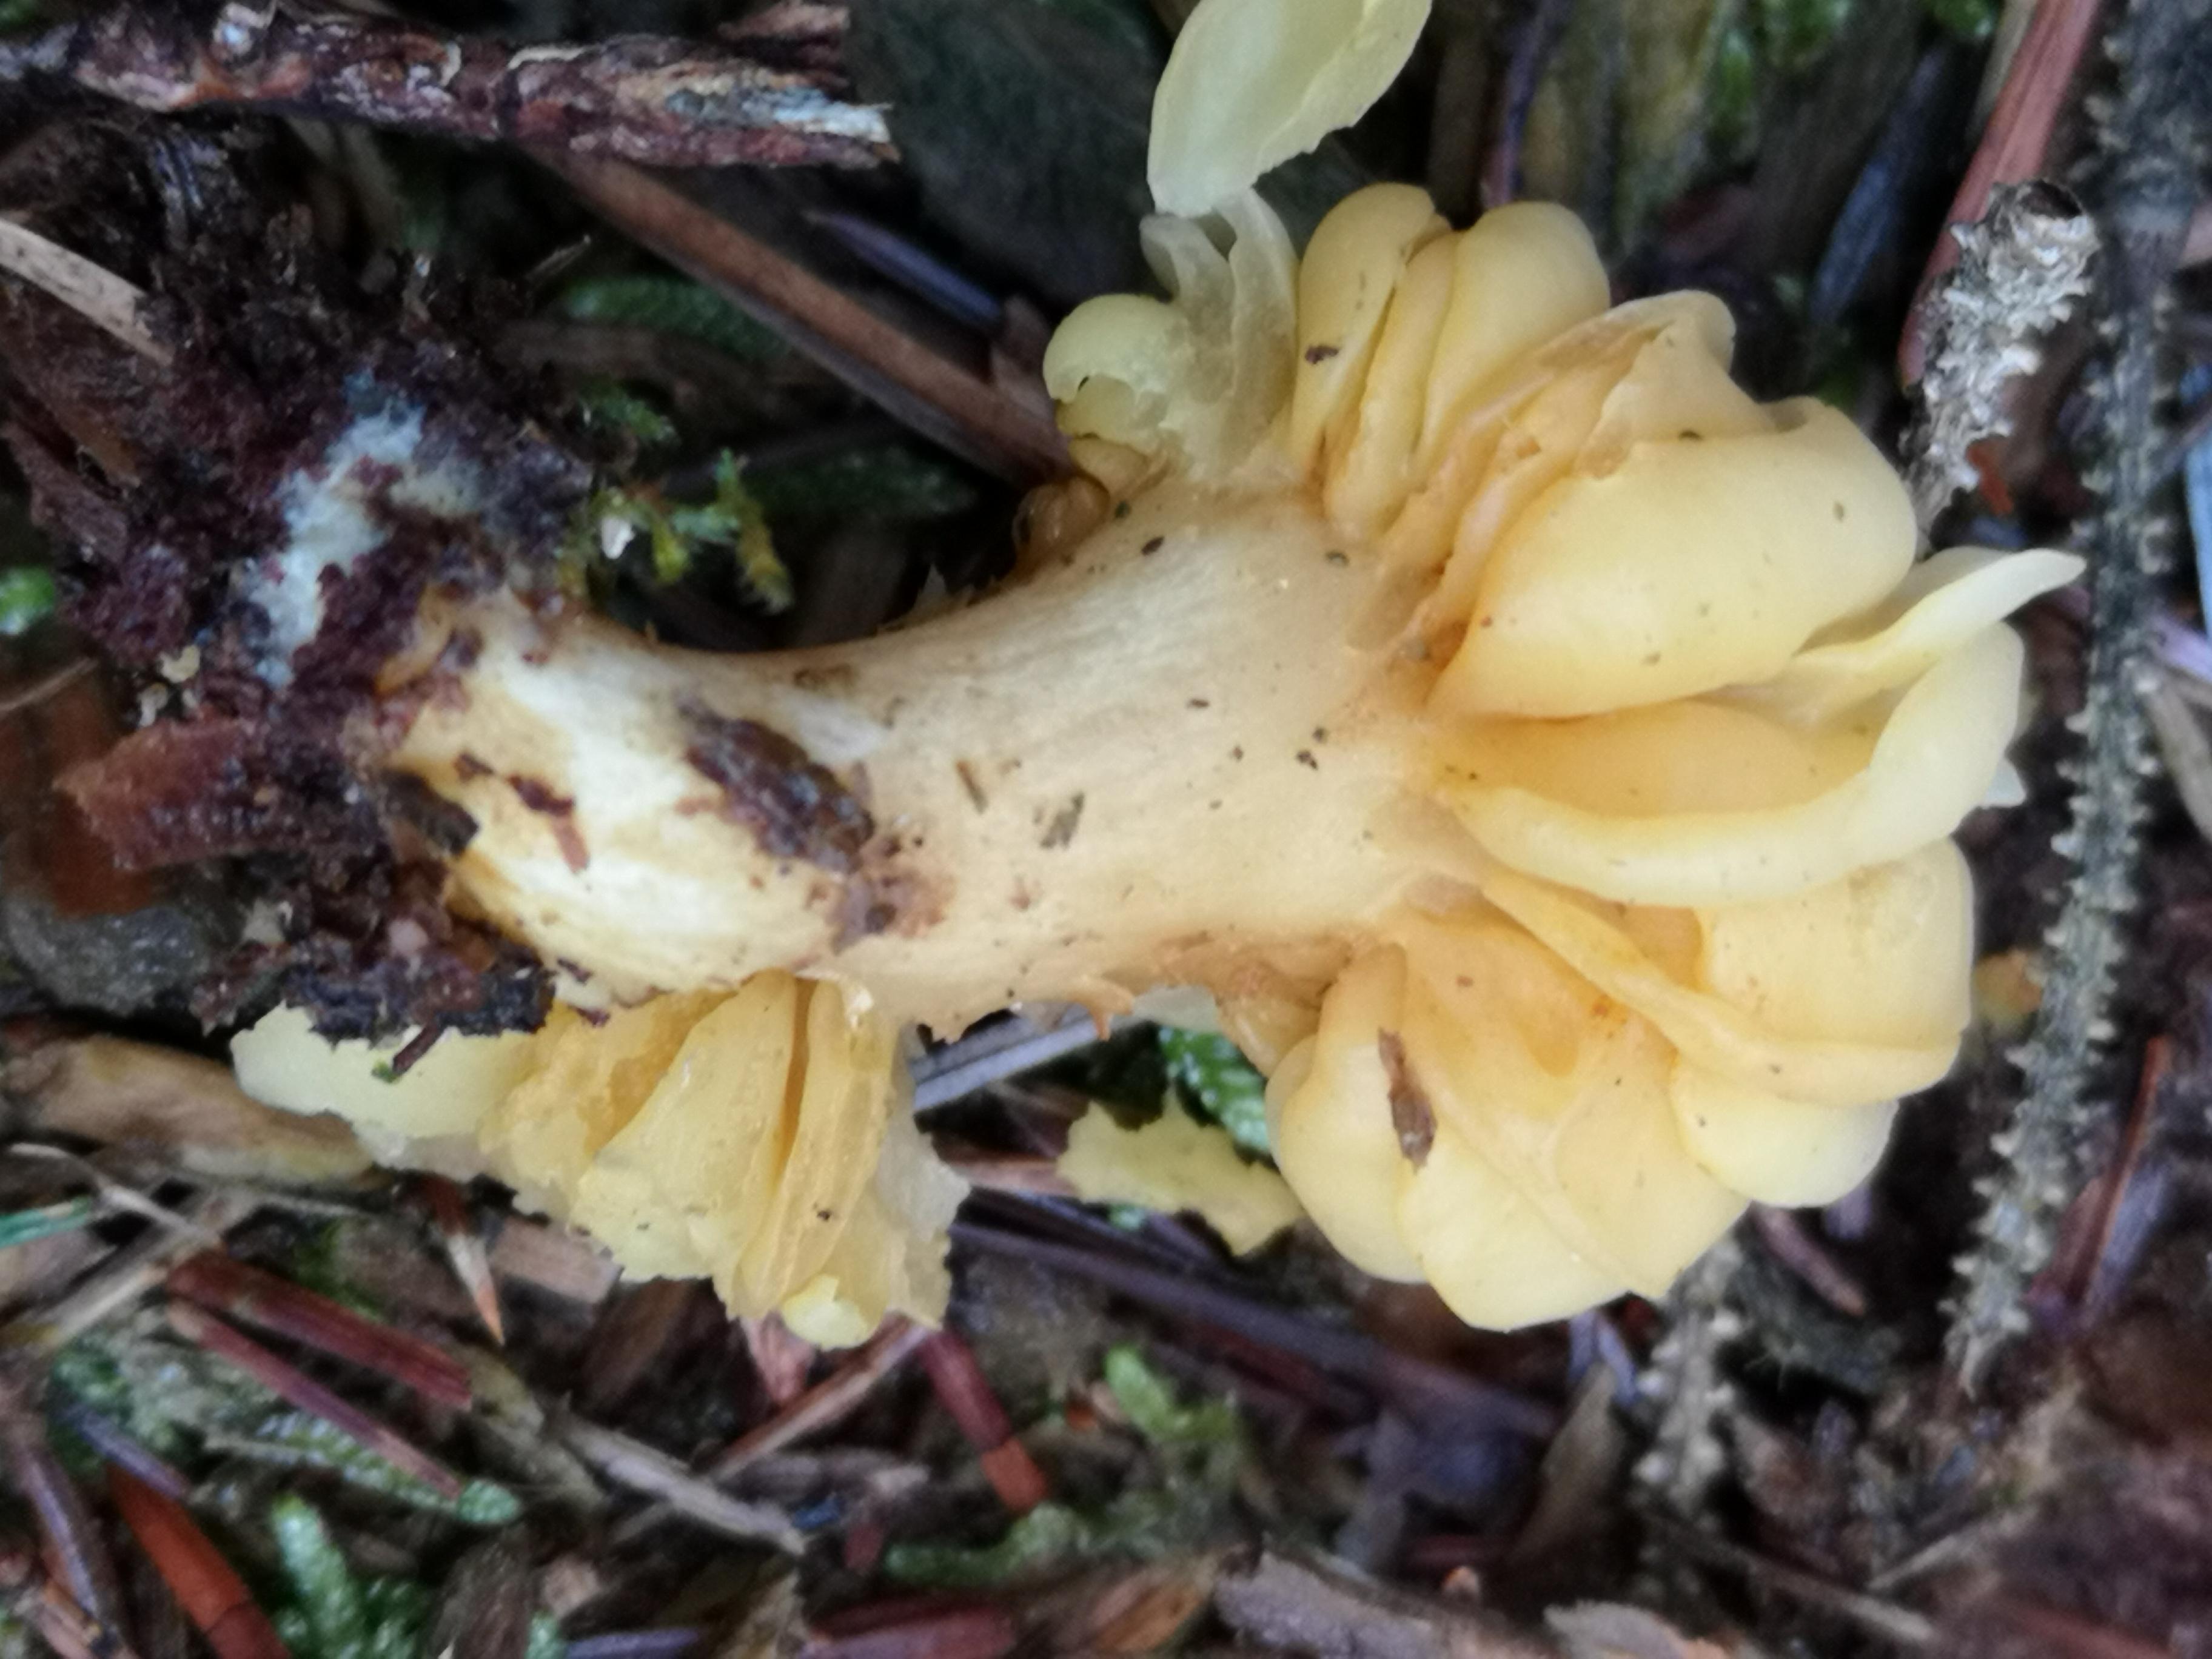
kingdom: Fungi
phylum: Basidiomycota
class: Agaricomycetes
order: Agaricales
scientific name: Agaricales
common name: champignonordenen
